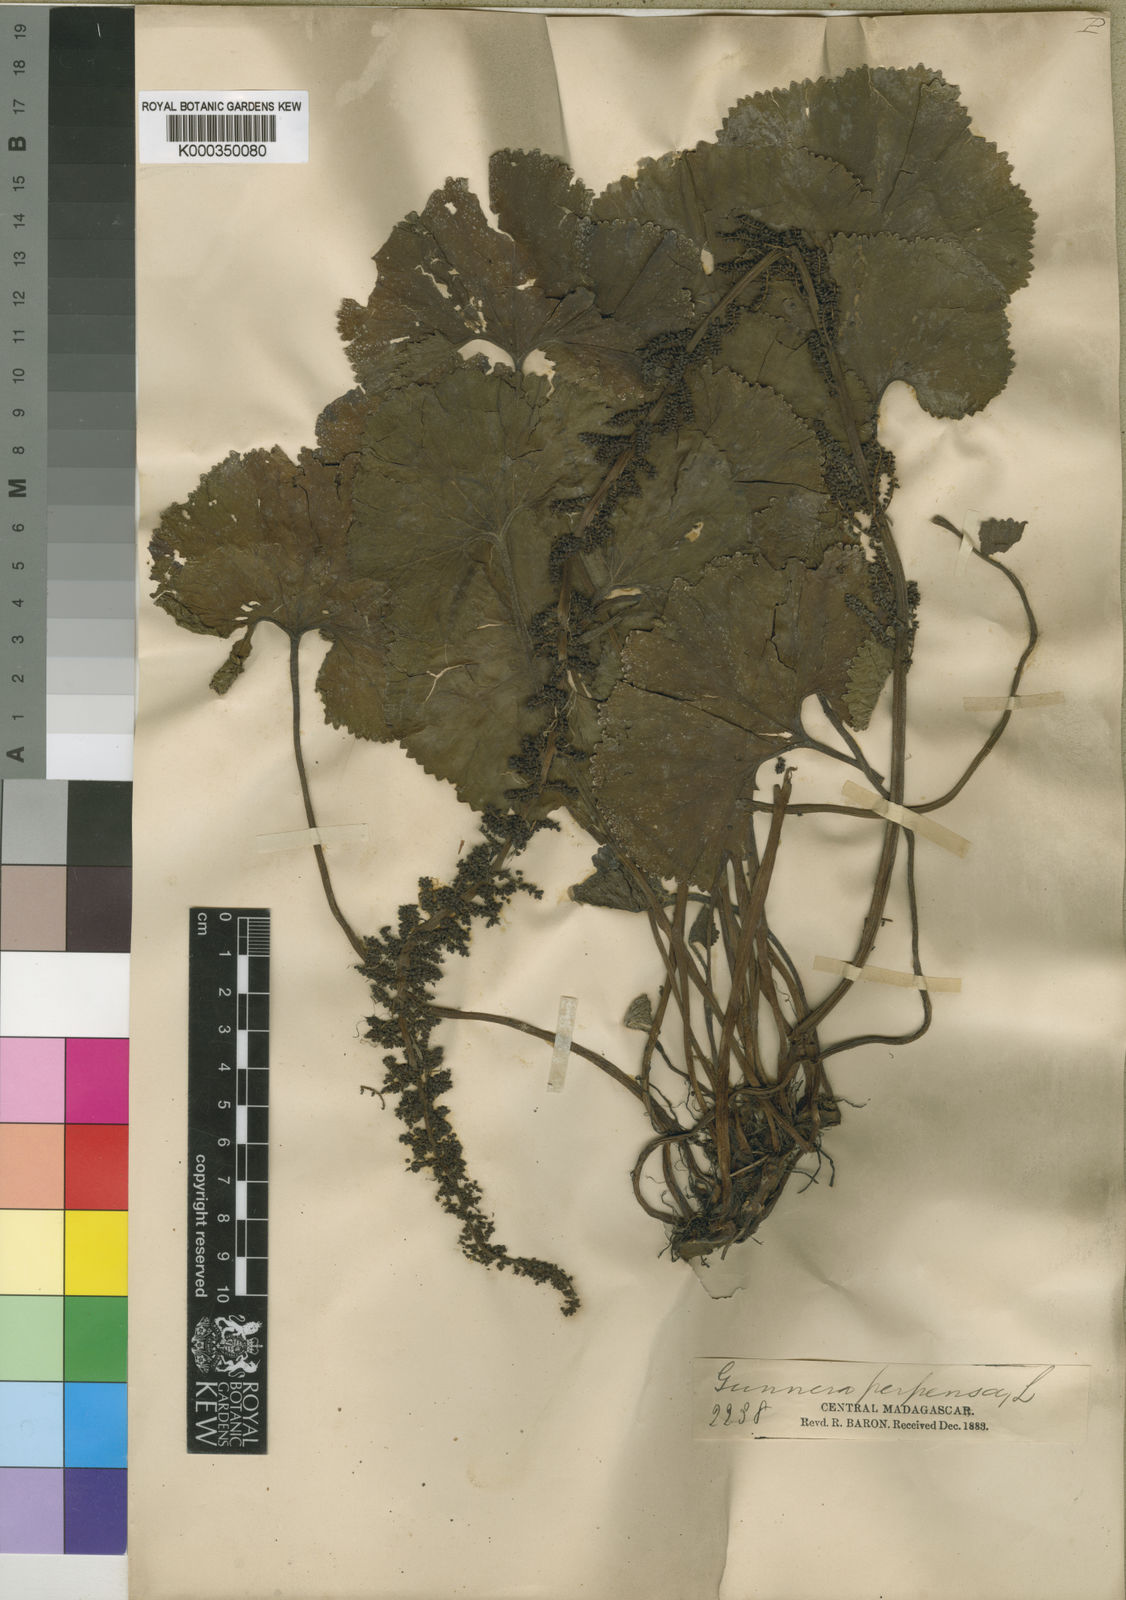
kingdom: Plantae
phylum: Tracheophyta
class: Magnoliopsida
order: Gunnerales
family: Gunneraceae
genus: Gunnera
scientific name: Gunnera perpensa
